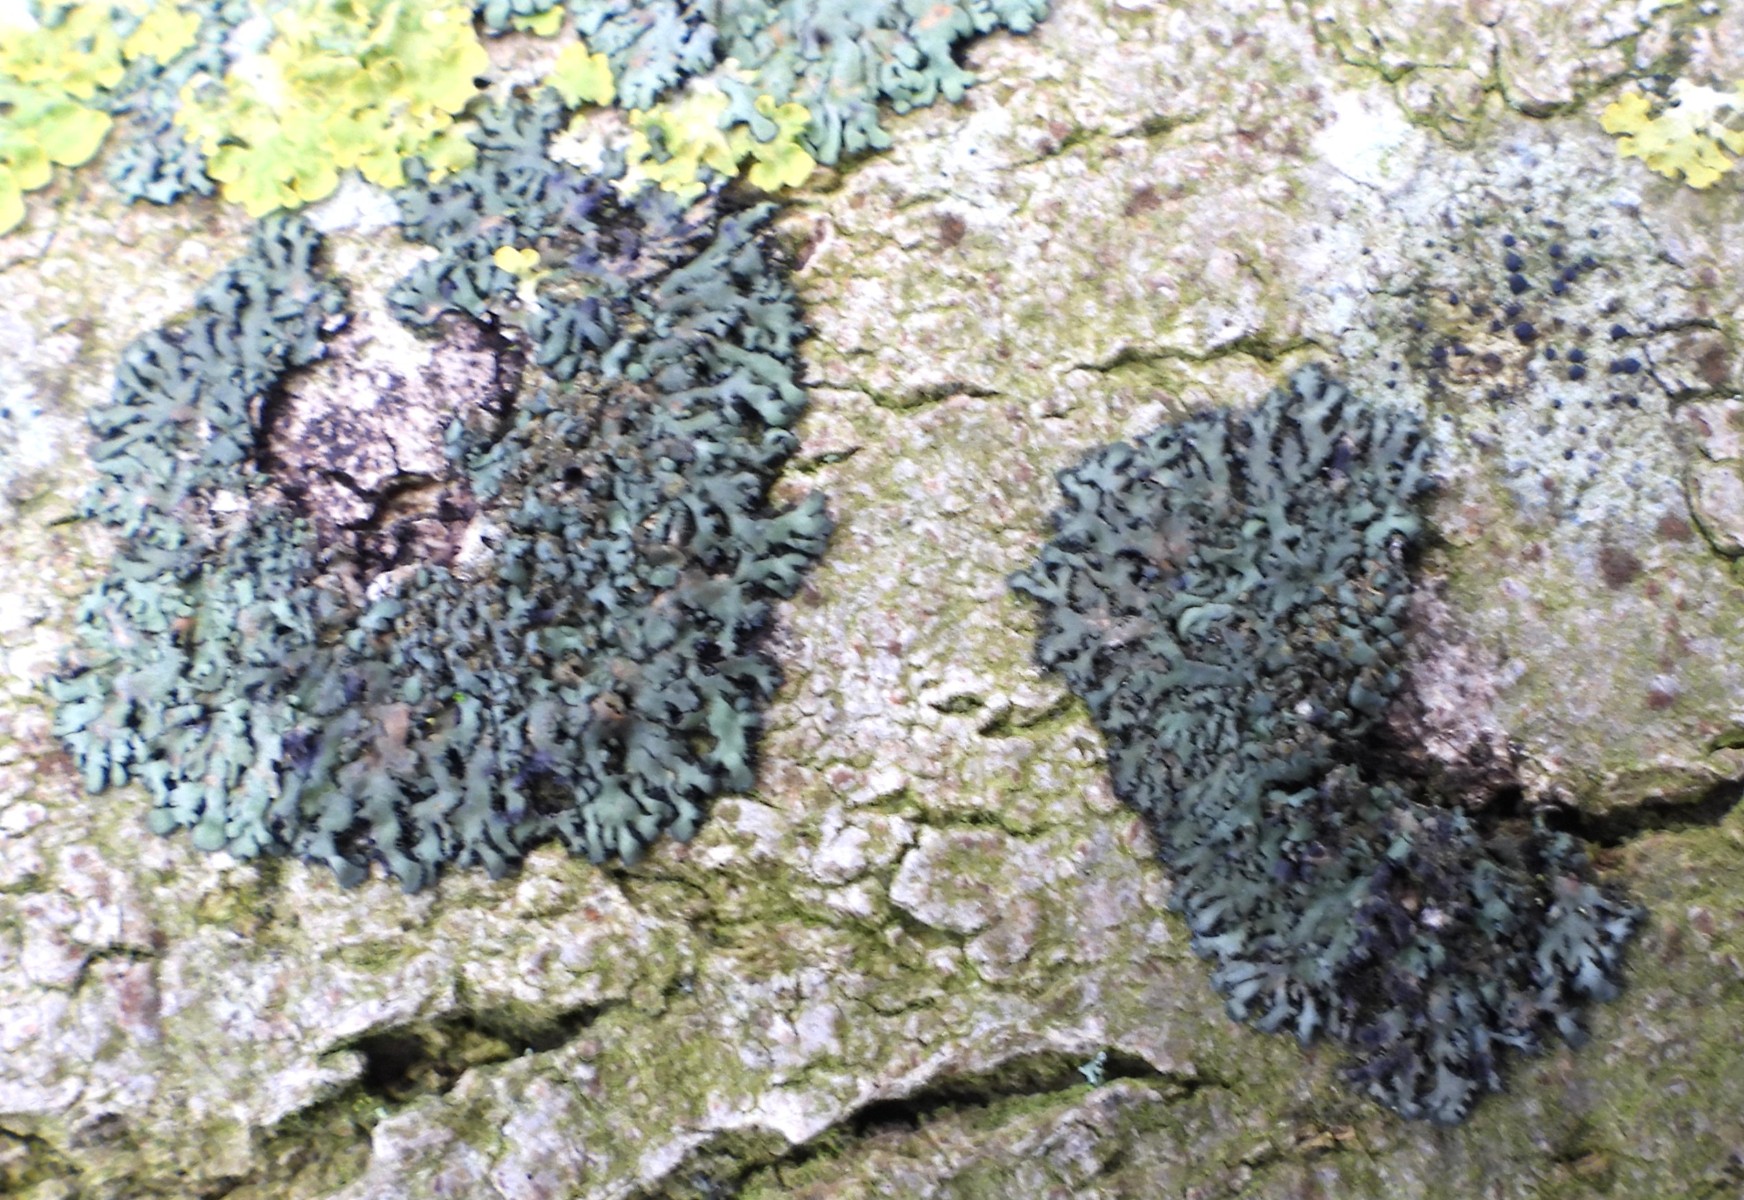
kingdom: Fungi
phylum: Ascomycota
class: Lecanoromycetes
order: Caliciales
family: Physciaceae
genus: Phaeophyscia
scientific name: Phaeophyscia orbicularis
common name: grågrøn rosetlav
